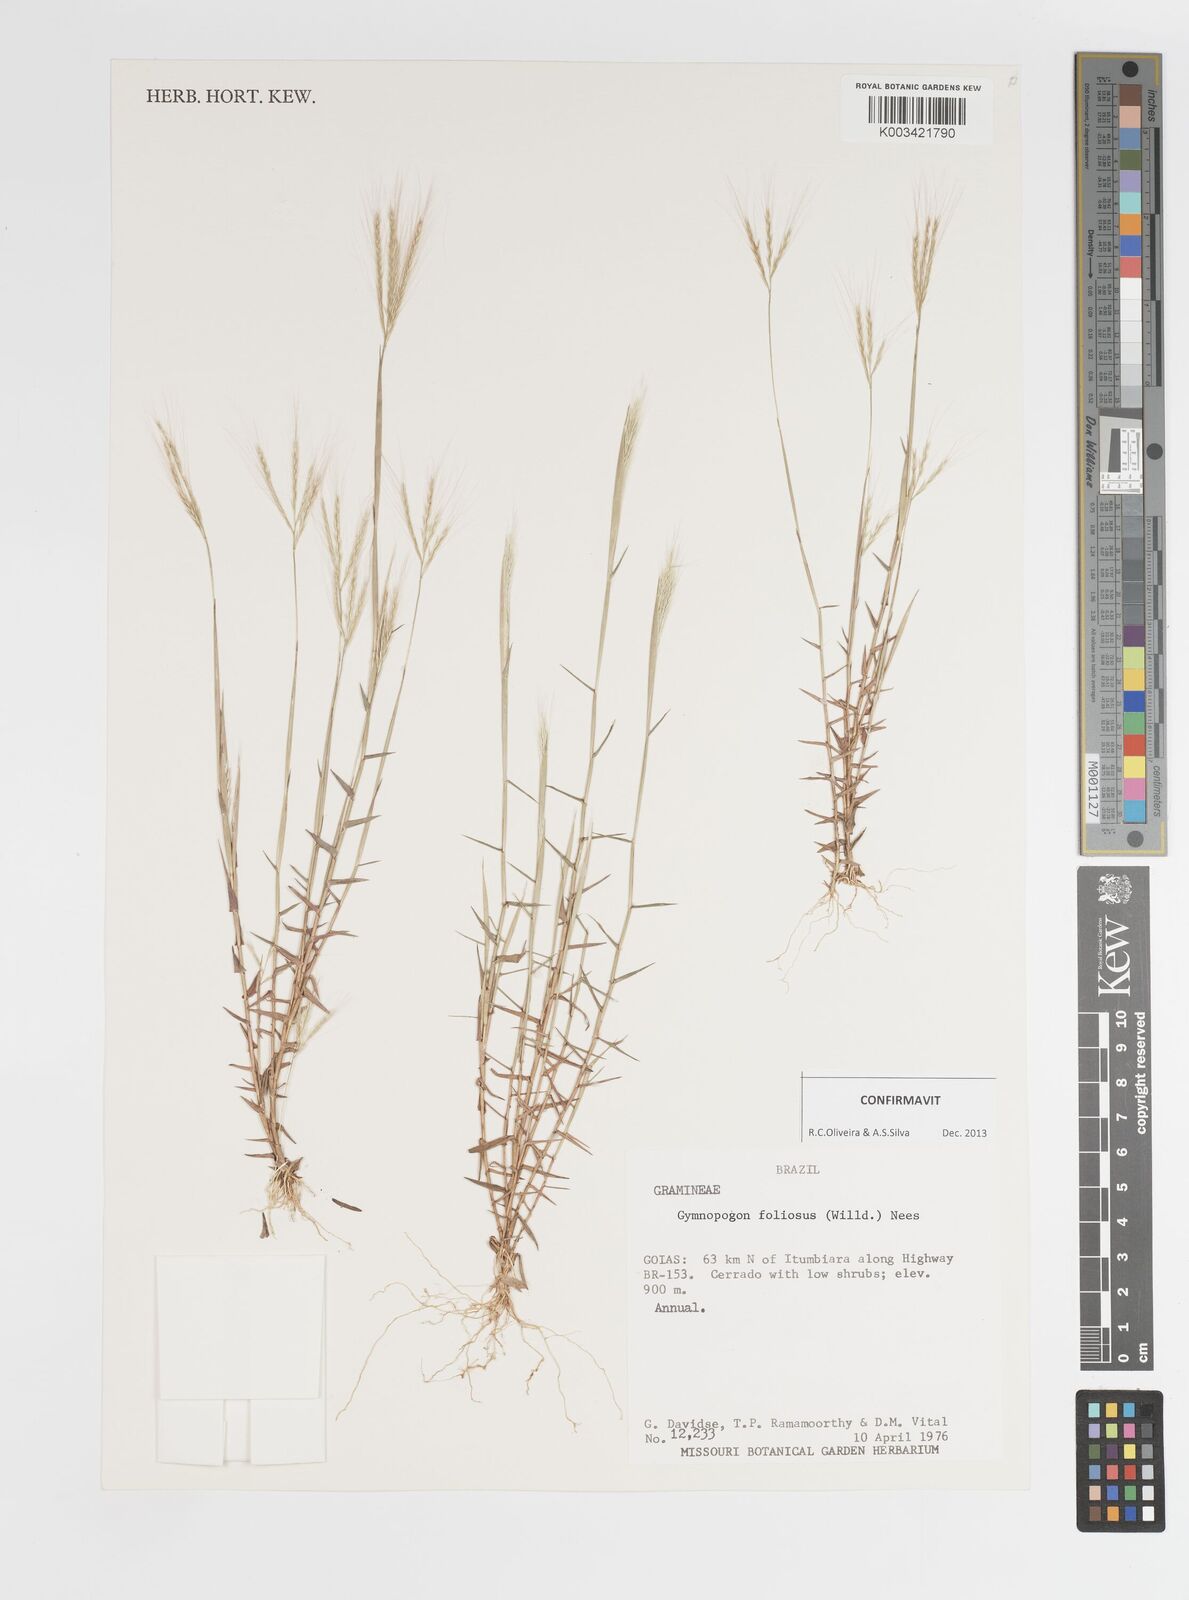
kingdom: Plantae
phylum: Tracheophyta
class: Liliopsida
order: Poales
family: Poaceae
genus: Gymnopogon
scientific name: Gymnopogon foliosus
